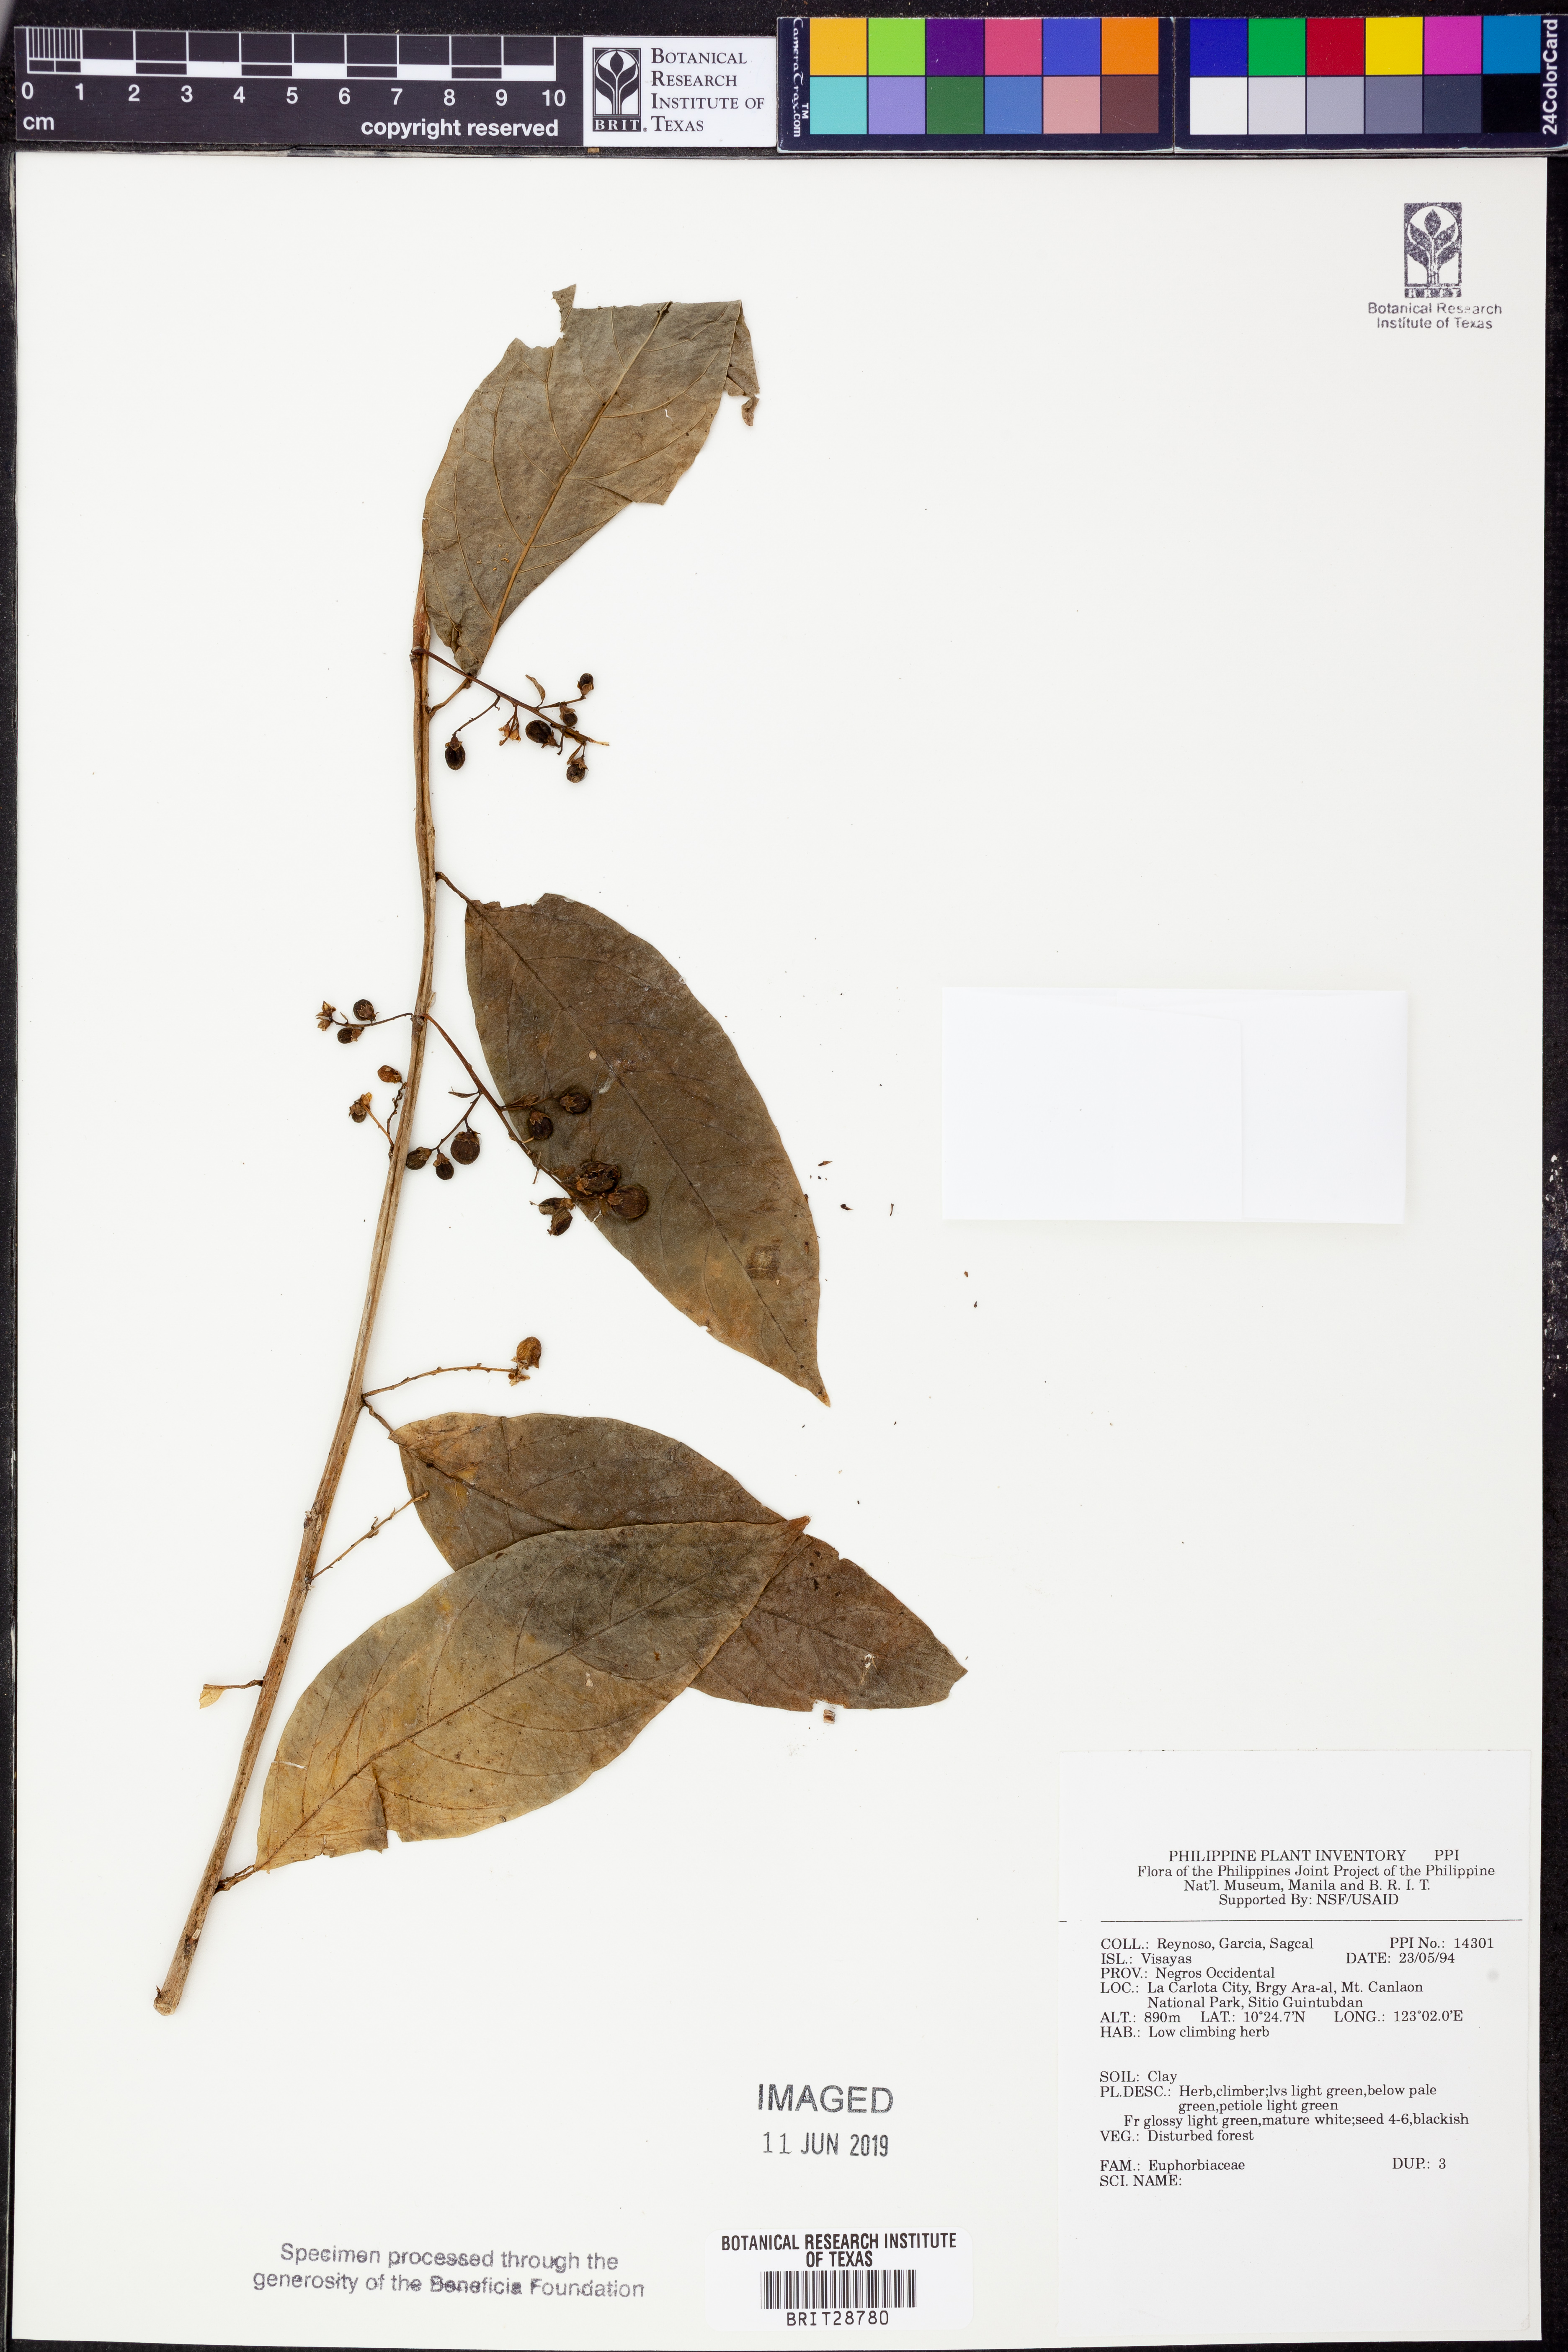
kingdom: Plantae
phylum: Tracheophyta
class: Magnoliopsida
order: Malpighiales
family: Euphorbiaceae
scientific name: Euphorbiaceae
